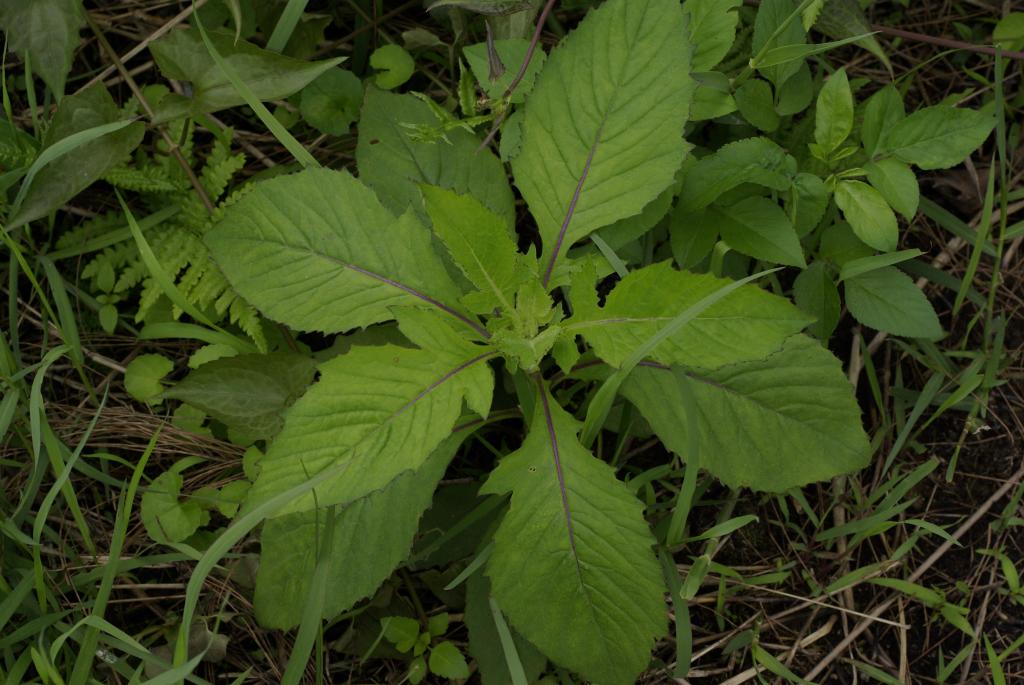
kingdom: Plantae
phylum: Tracheophyta
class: Magnoliopsida
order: Asterales
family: Asteraceae
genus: Crassocephalum
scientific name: Crassocephalum crepidioides
